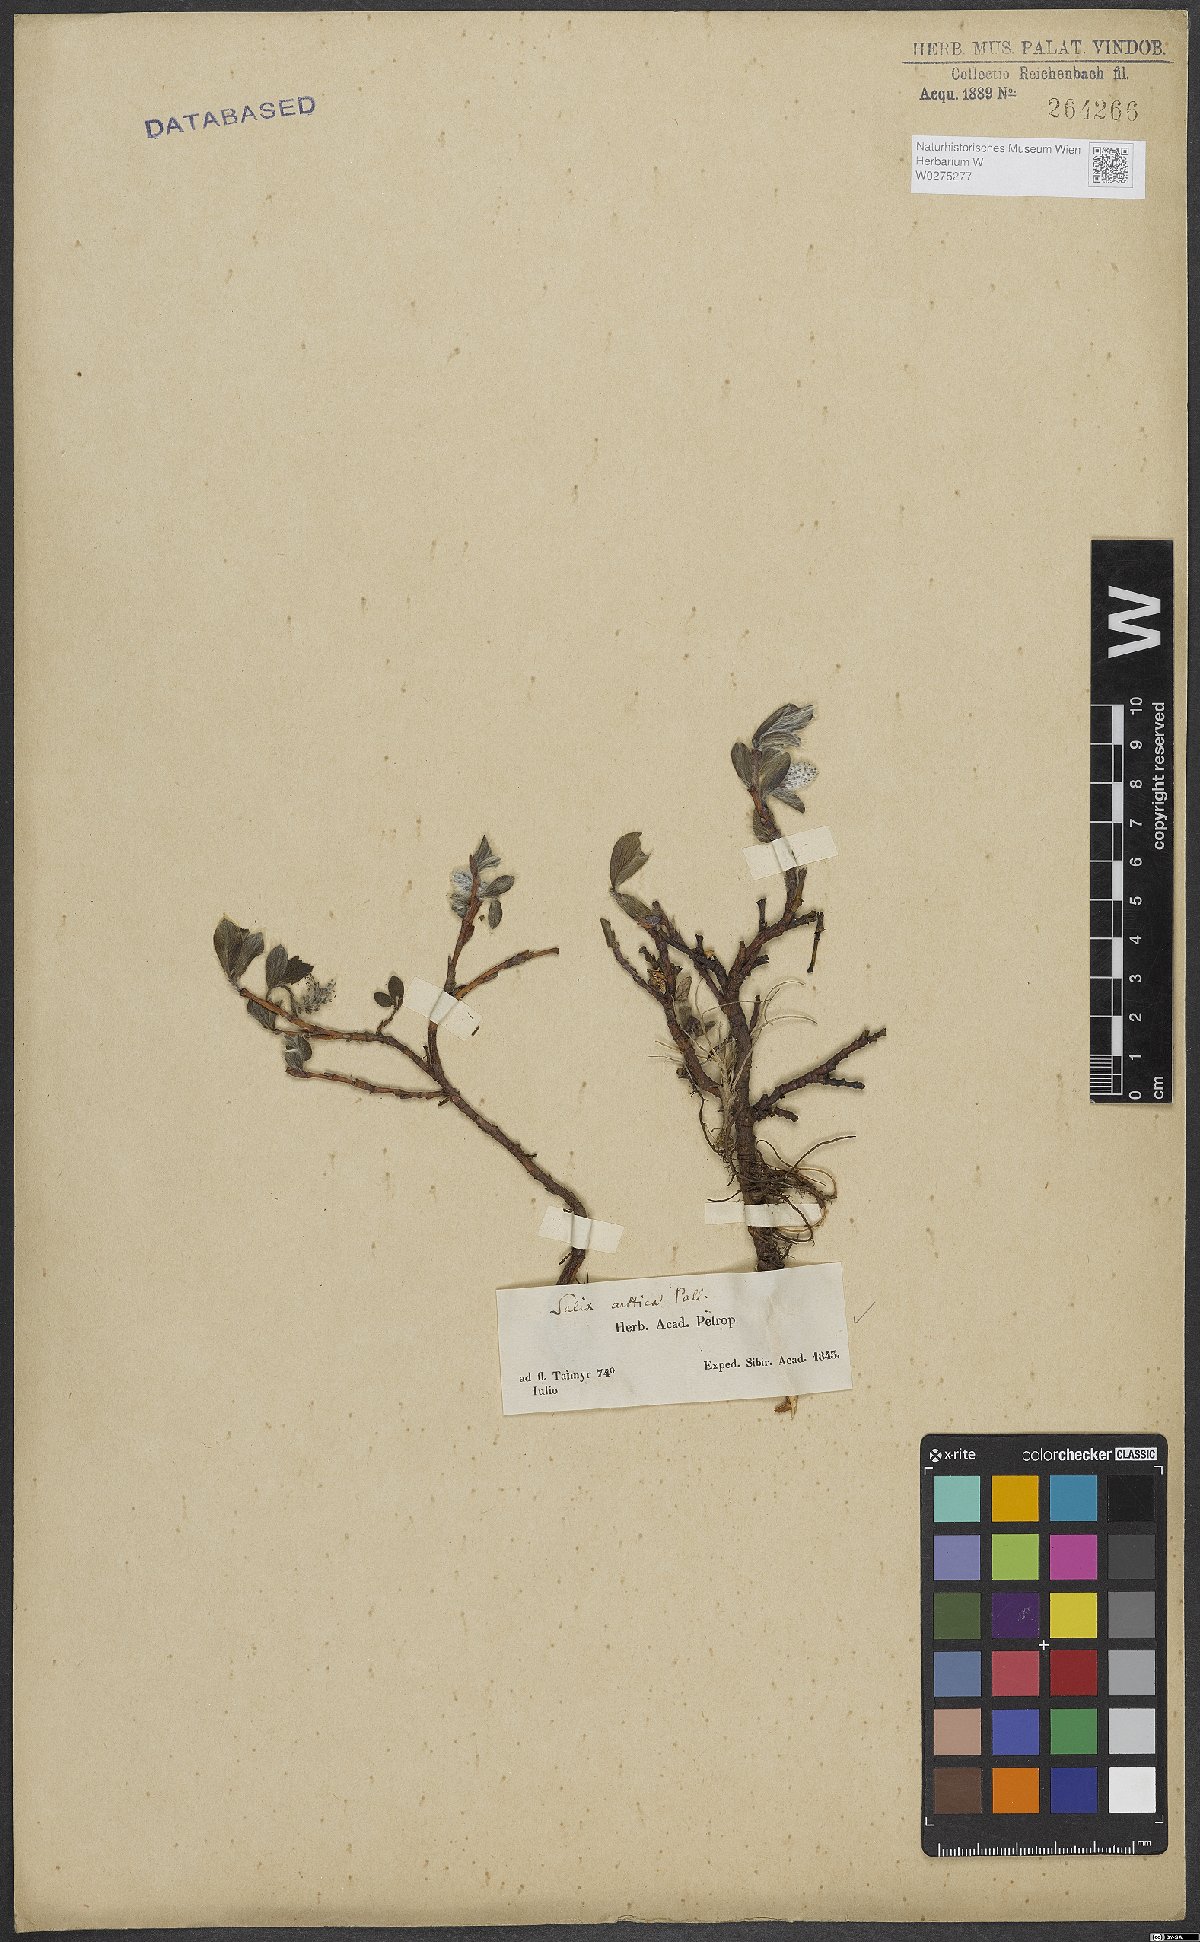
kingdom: Plantae
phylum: Tracheophyta
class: Magnoliopsida
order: Malpighiales
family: Salicaceae
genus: Salix
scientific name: Salix arctica
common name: Arctic willow
